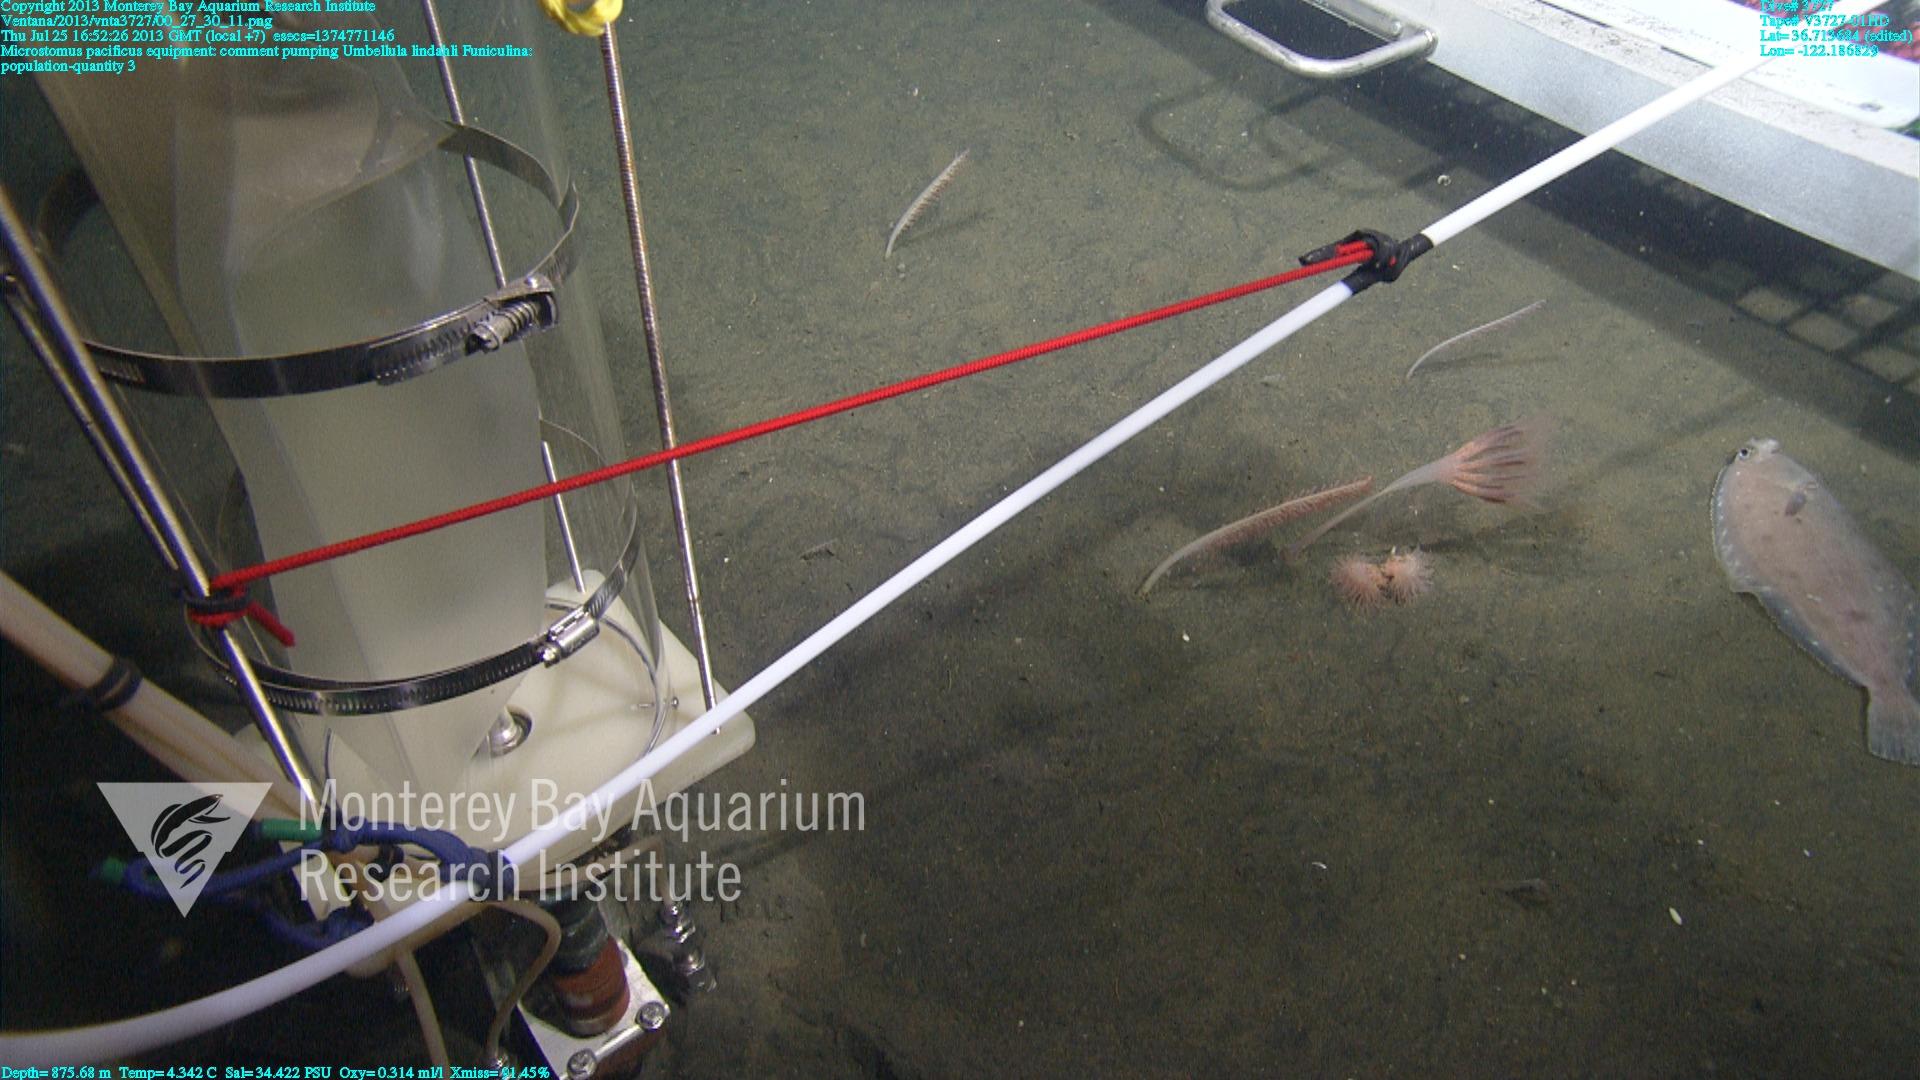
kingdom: Animalia
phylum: Cnidaria
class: Anthozoa
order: Scleralcyonacea
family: Umbellulidae
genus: Umbellula
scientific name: Umbellula lindahli
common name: Lindahl's droopy sea pen
